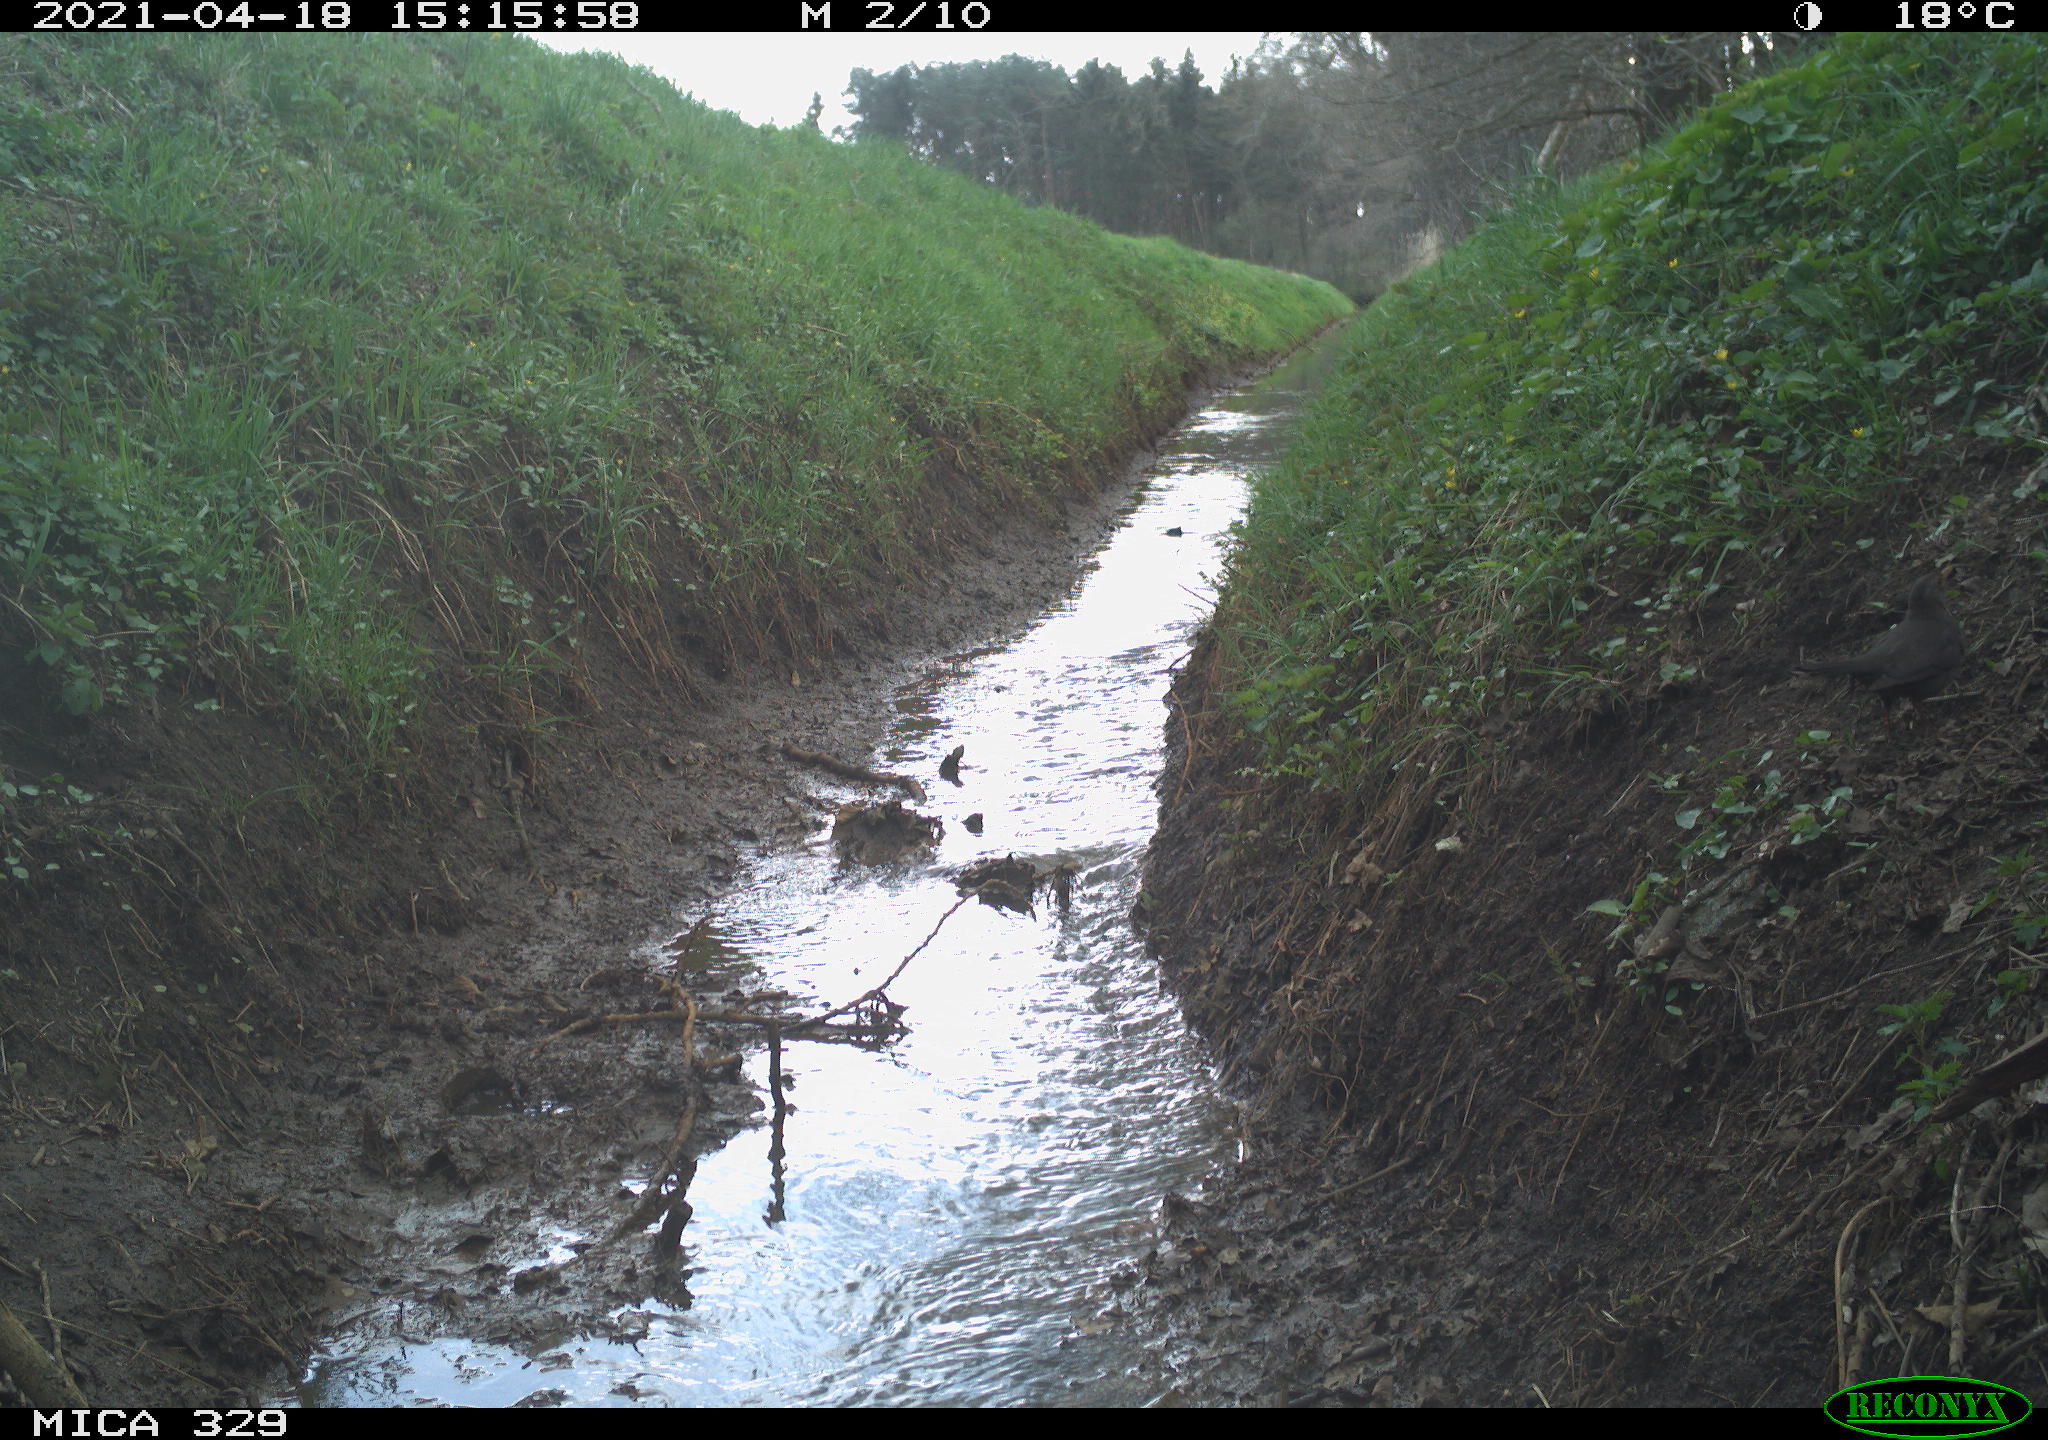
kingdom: Animalia
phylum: Chordata
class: Aves
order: Passeriformes
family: Turdidae
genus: Turdus
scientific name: Turdus merula
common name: Common blackbird
